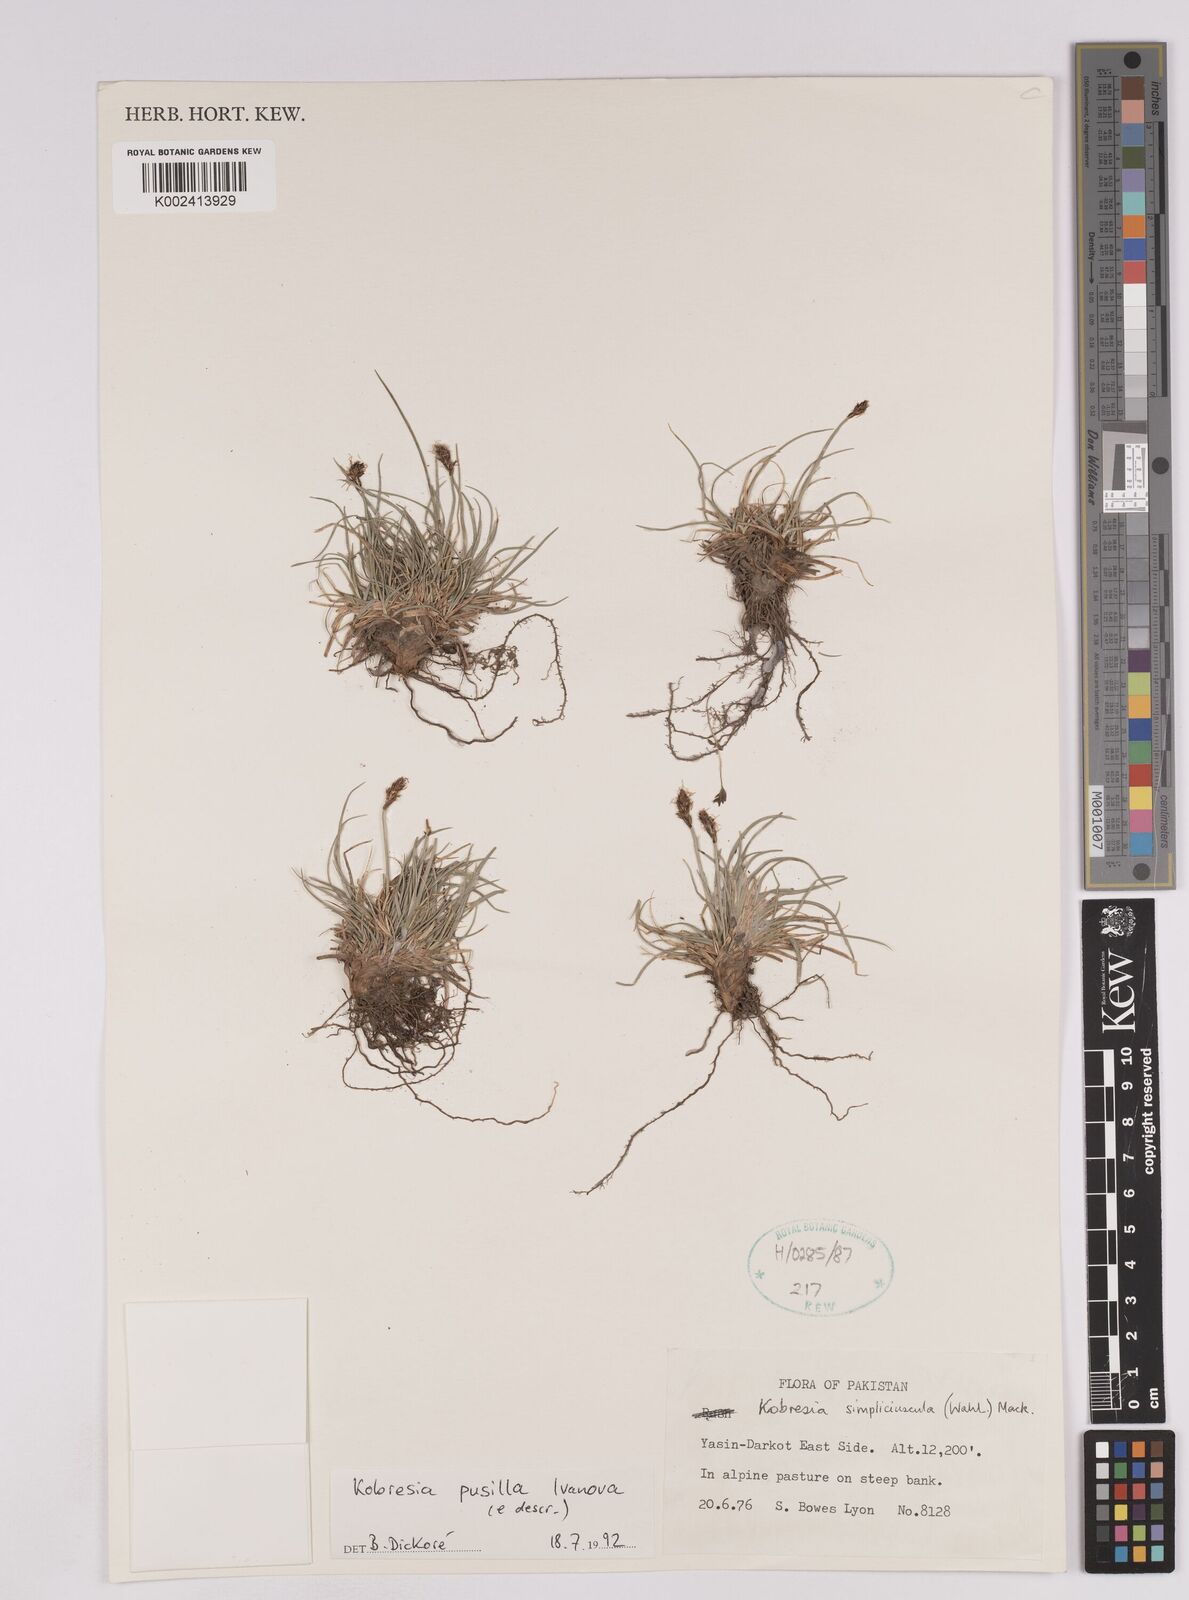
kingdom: Plantae
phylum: Tracheophyta
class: Liliopsida
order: Poales
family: Cyperaceae
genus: Carex
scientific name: Carex coninux
